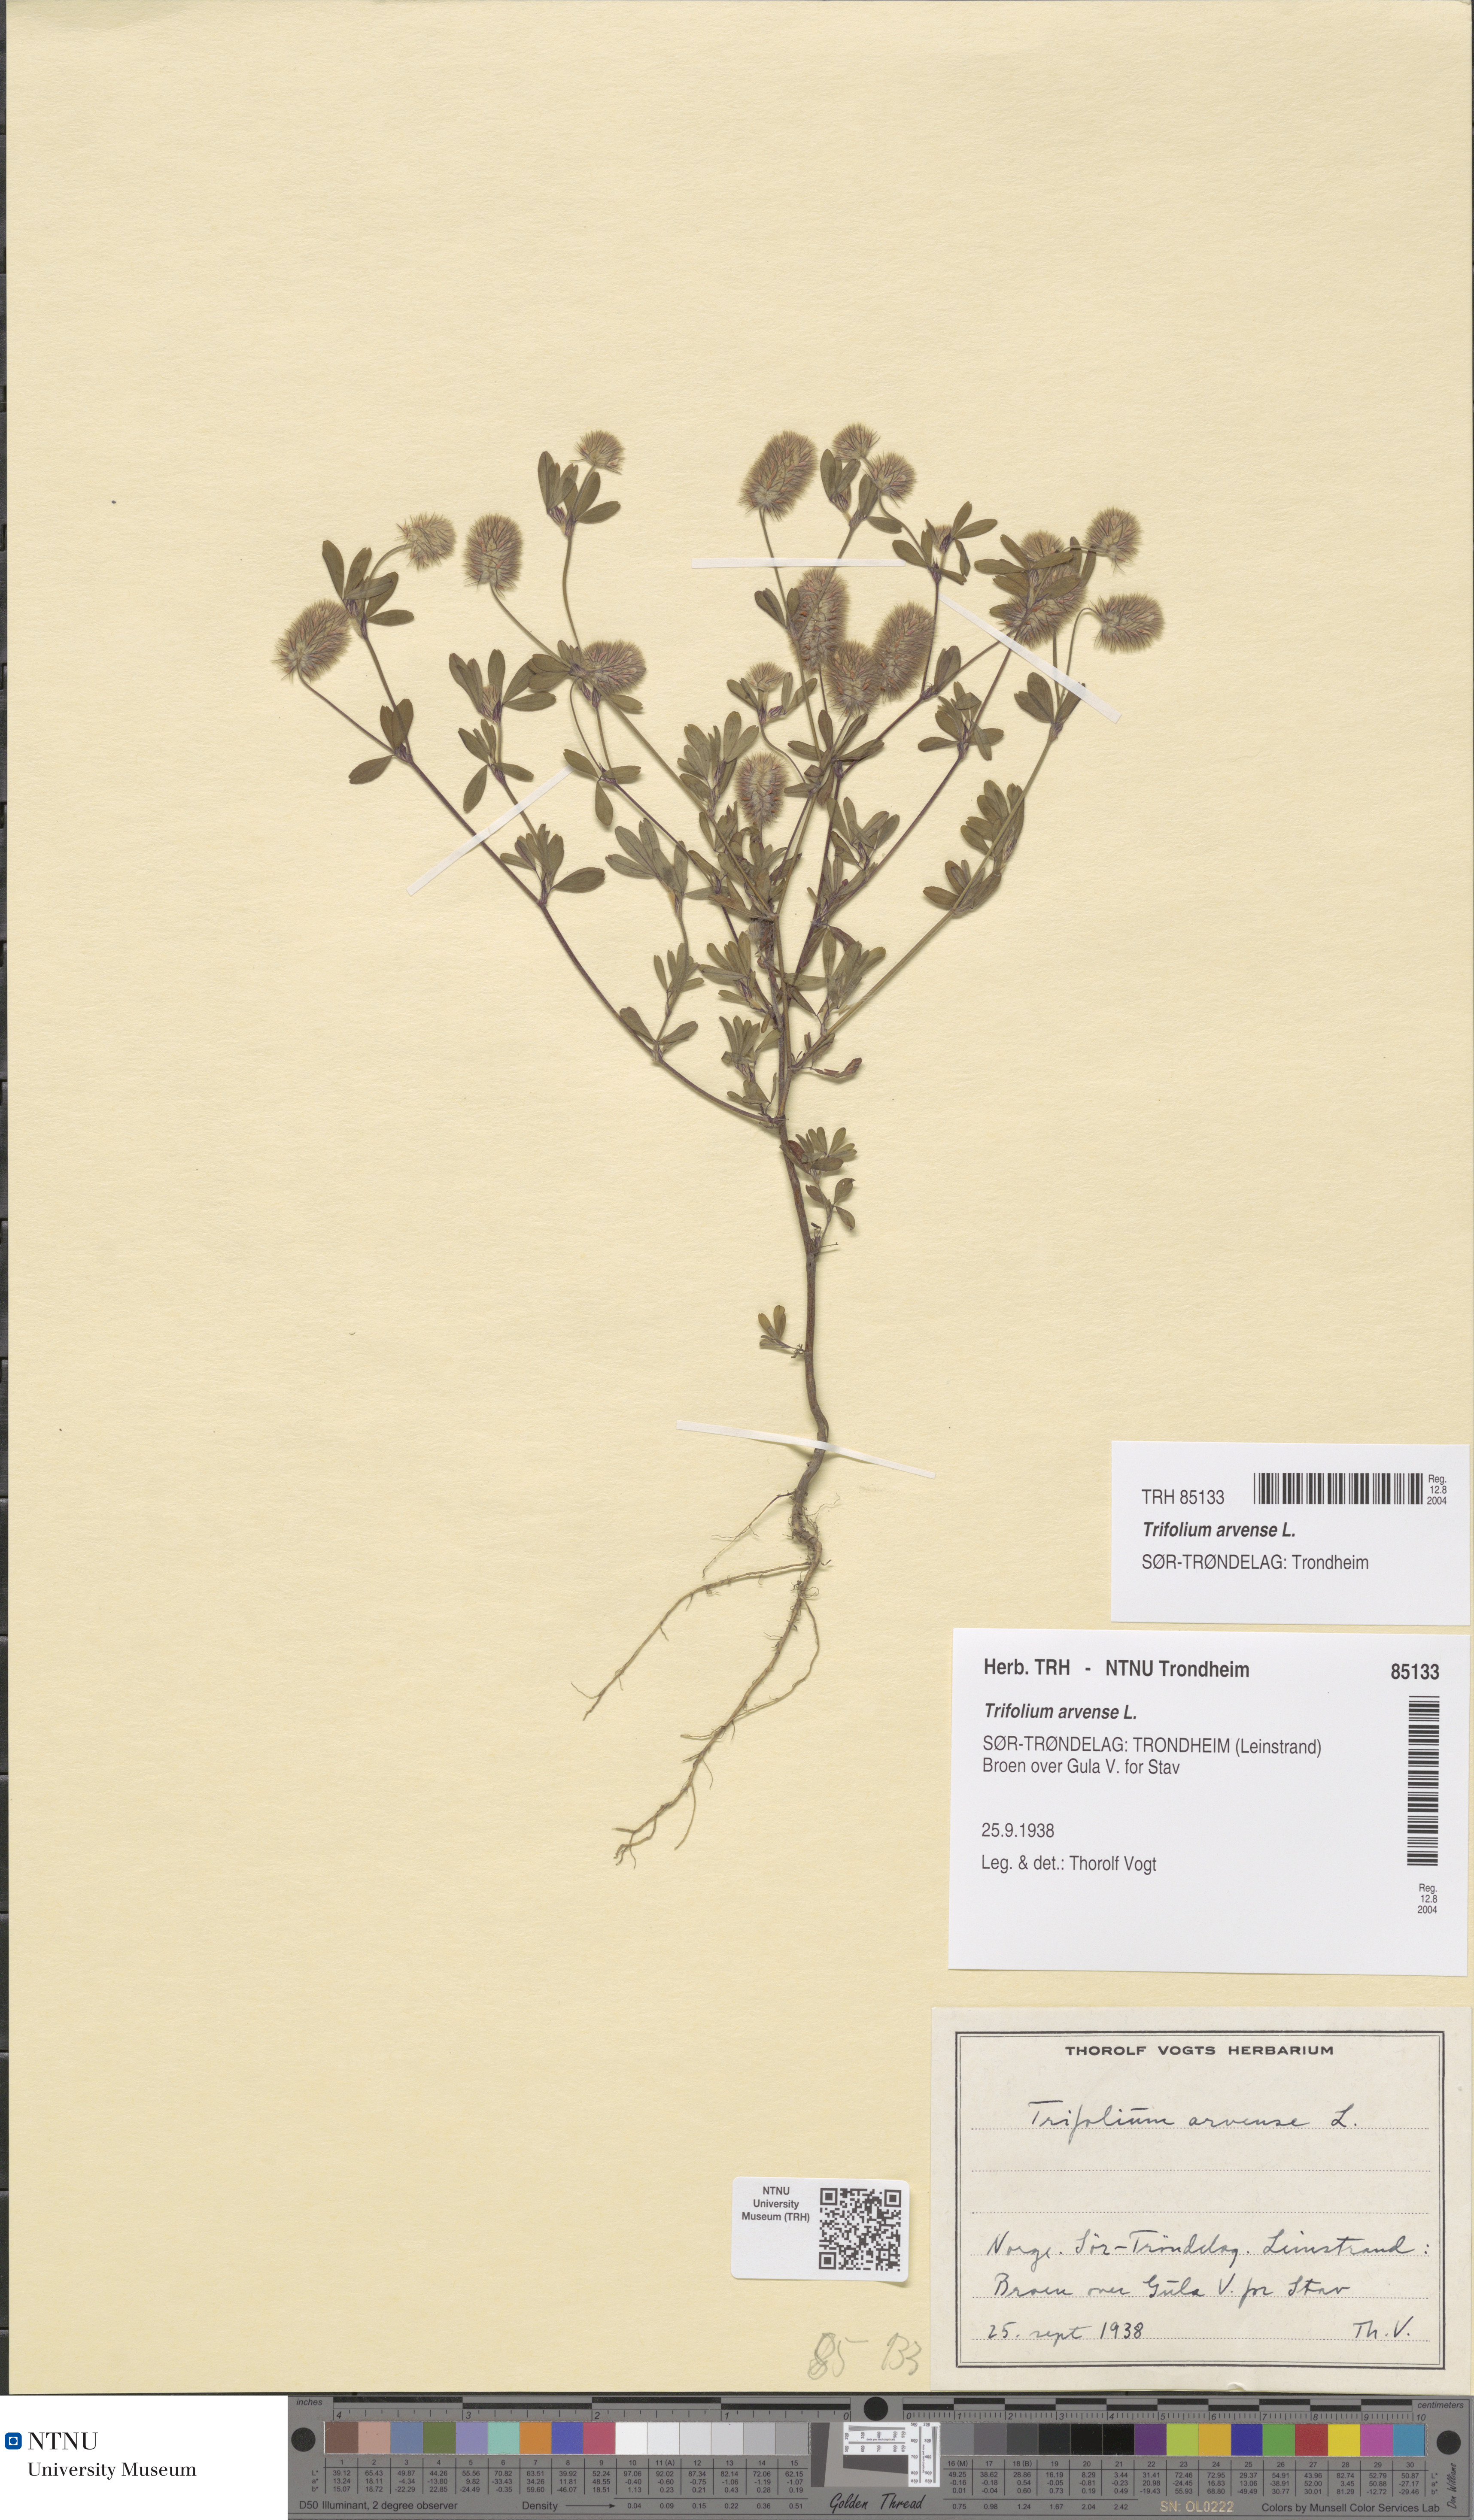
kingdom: Plantae
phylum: Tracheophyta
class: Magnoliopsida
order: Fabales
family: Fabaceae
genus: Trifolium
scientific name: Trifolium arvense
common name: Hare's-foot clover
